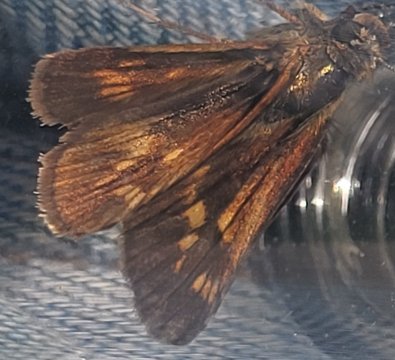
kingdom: Animalia
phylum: Arthropoda
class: Insecta
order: Lepidoptera
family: Hesperiidae
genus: Polites
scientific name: Polites
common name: Long Dash Skipper
